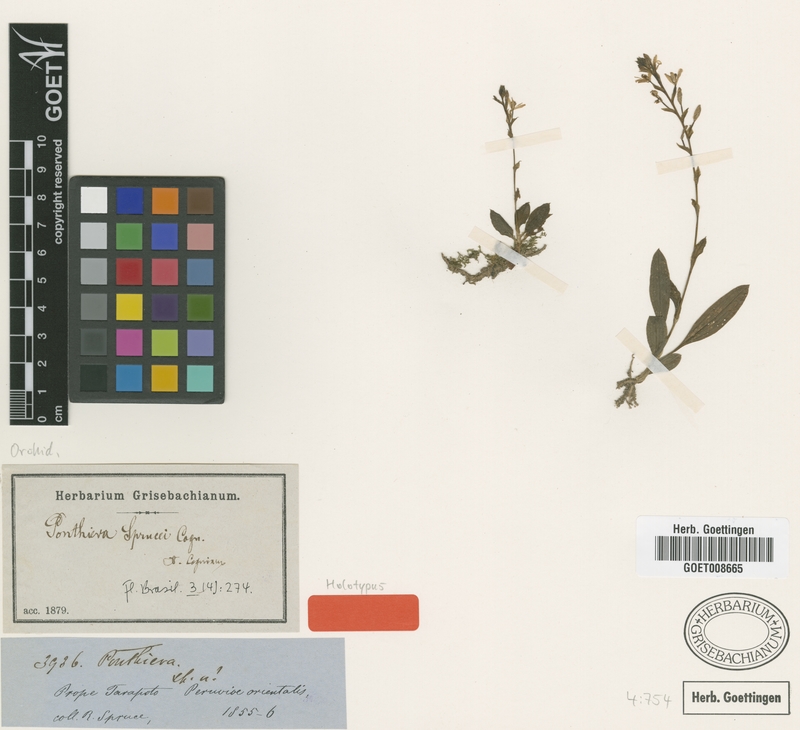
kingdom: Plantae
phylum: Tracheophyta
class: Liliopsida
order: Asparagales
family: Orchidaceae
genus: Ponthieva
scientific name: Ponthieva sprucei
